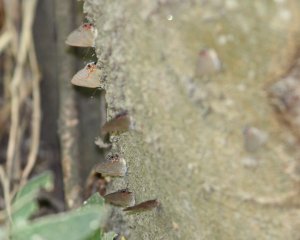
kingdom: Animalia
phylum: Arthropoda
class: Insecta
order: Lepidoptera
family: Lycaenidae
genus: Calycopis
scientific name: Calycopis isobeon
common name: Dusky-blue Groundstreak
